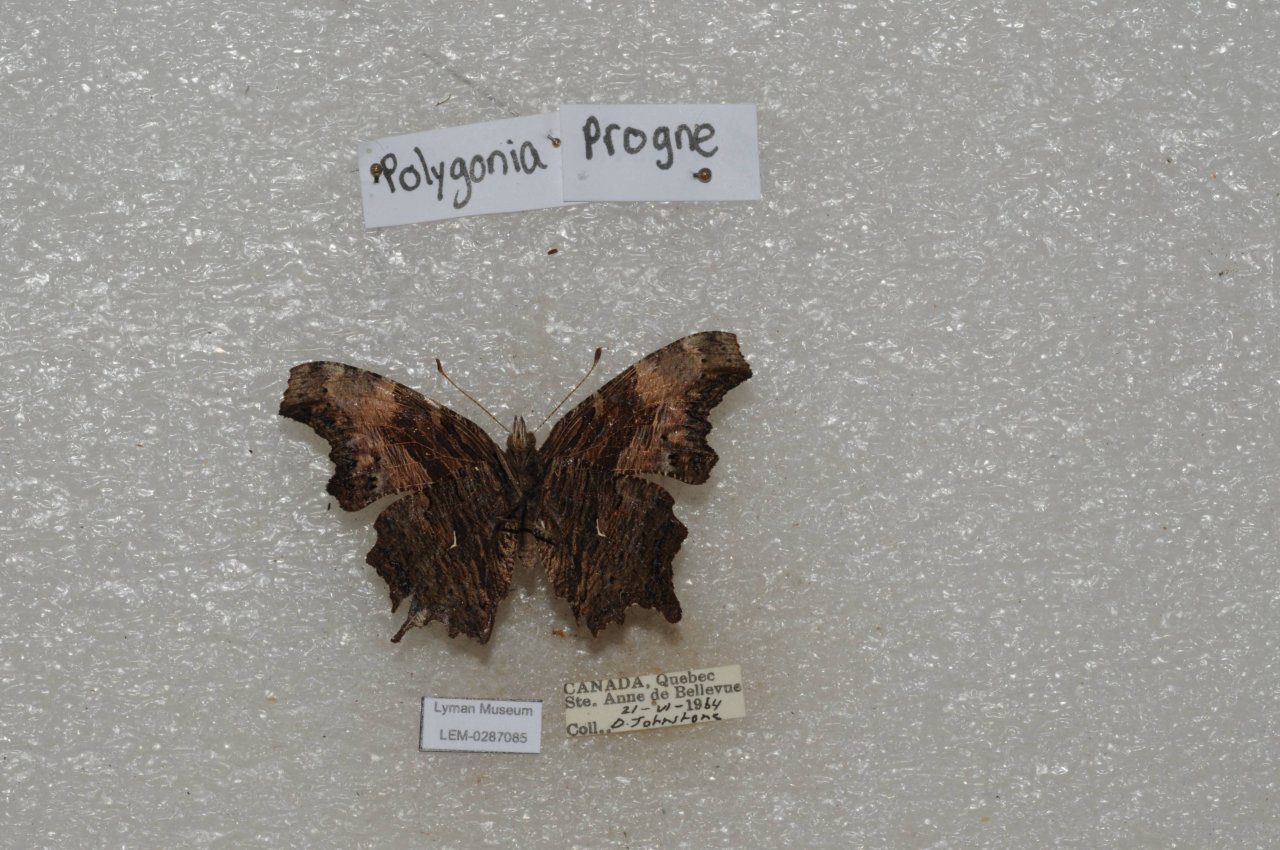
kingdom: Animalia
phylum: Arthropoda
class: Insecta
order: Lepidoptera
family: Nymphalidae
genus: Polygonia
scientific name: Polygonia progne
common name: Gray Comma
